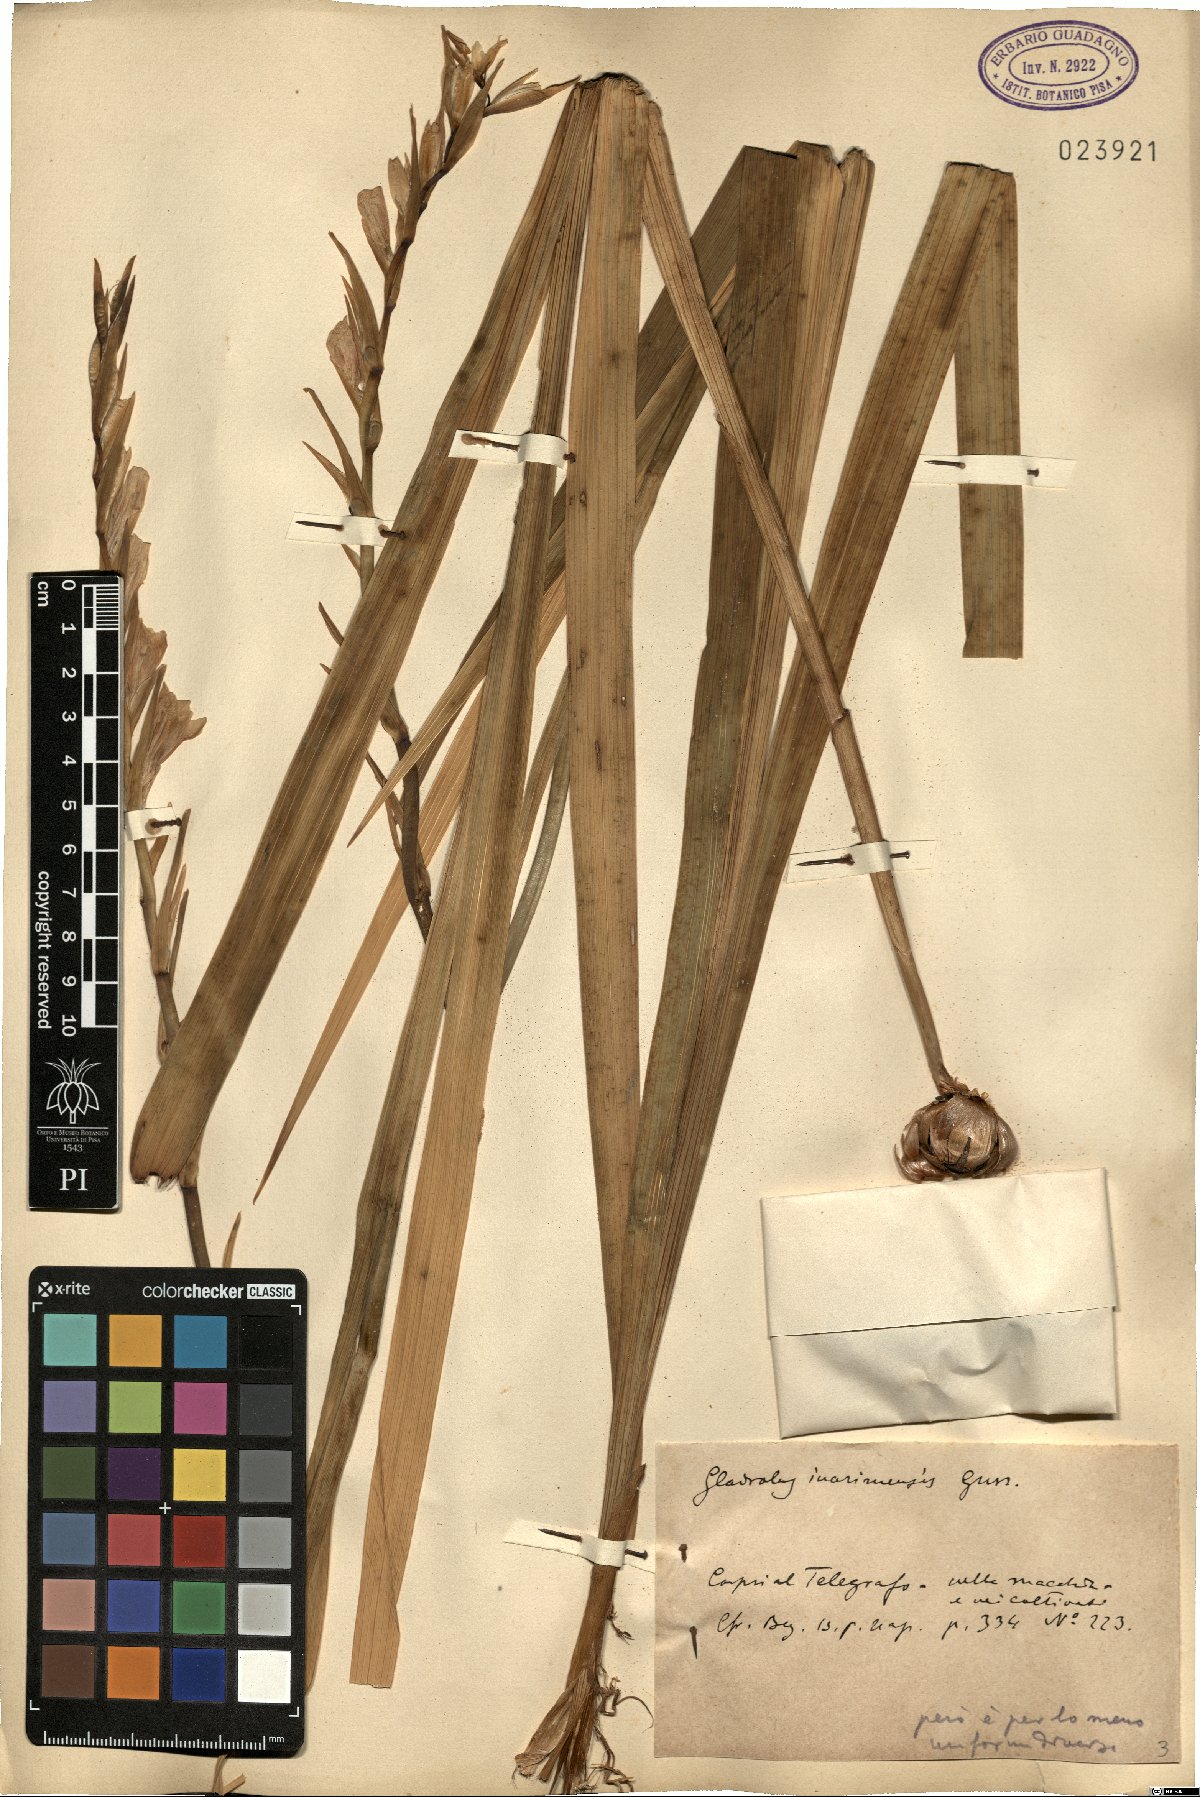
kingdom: Plantae
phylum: Tracheophyta
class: Liliopsida
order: Asparagales
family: Iridaceae
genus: Gladiolus
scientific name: Gladiolus inarimensis
